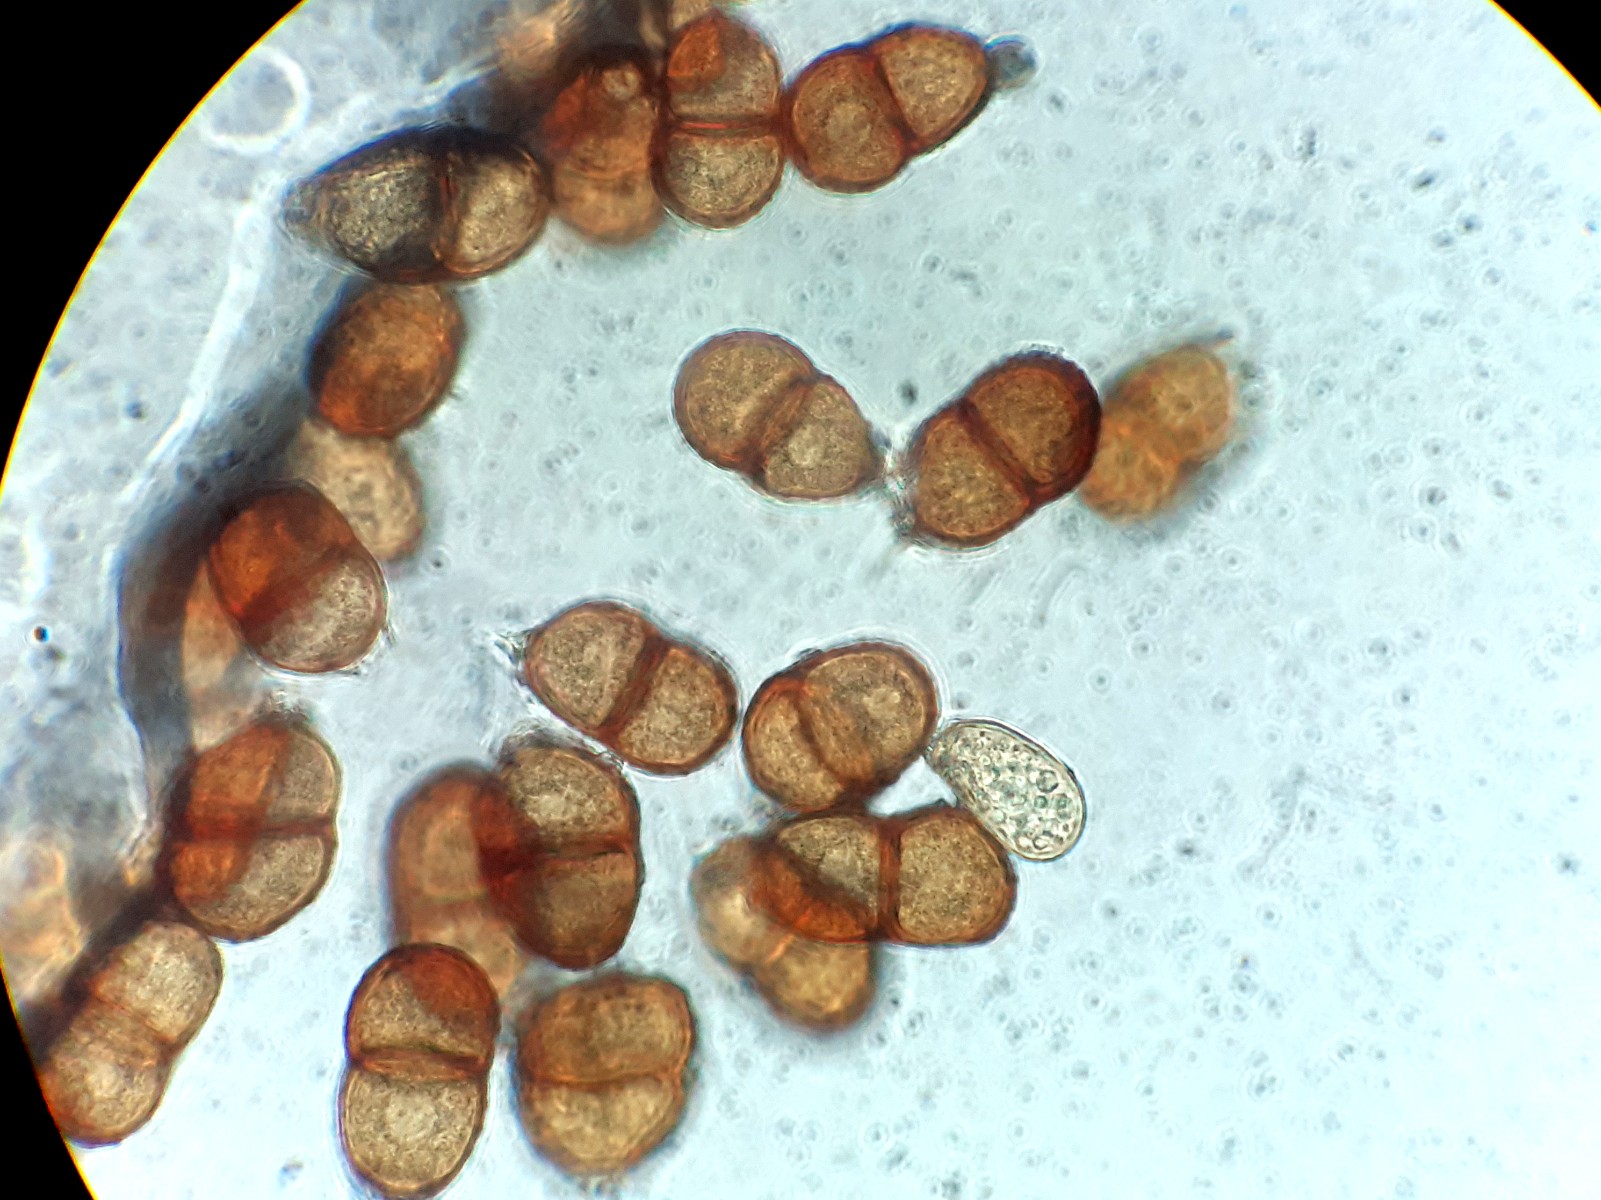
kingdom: Fungi
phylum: Basidiomycota
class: Pucciniomycetes
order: Pucciniales
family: Pucciniaceae
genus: Puccinia
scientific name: Puccinia hieracii
